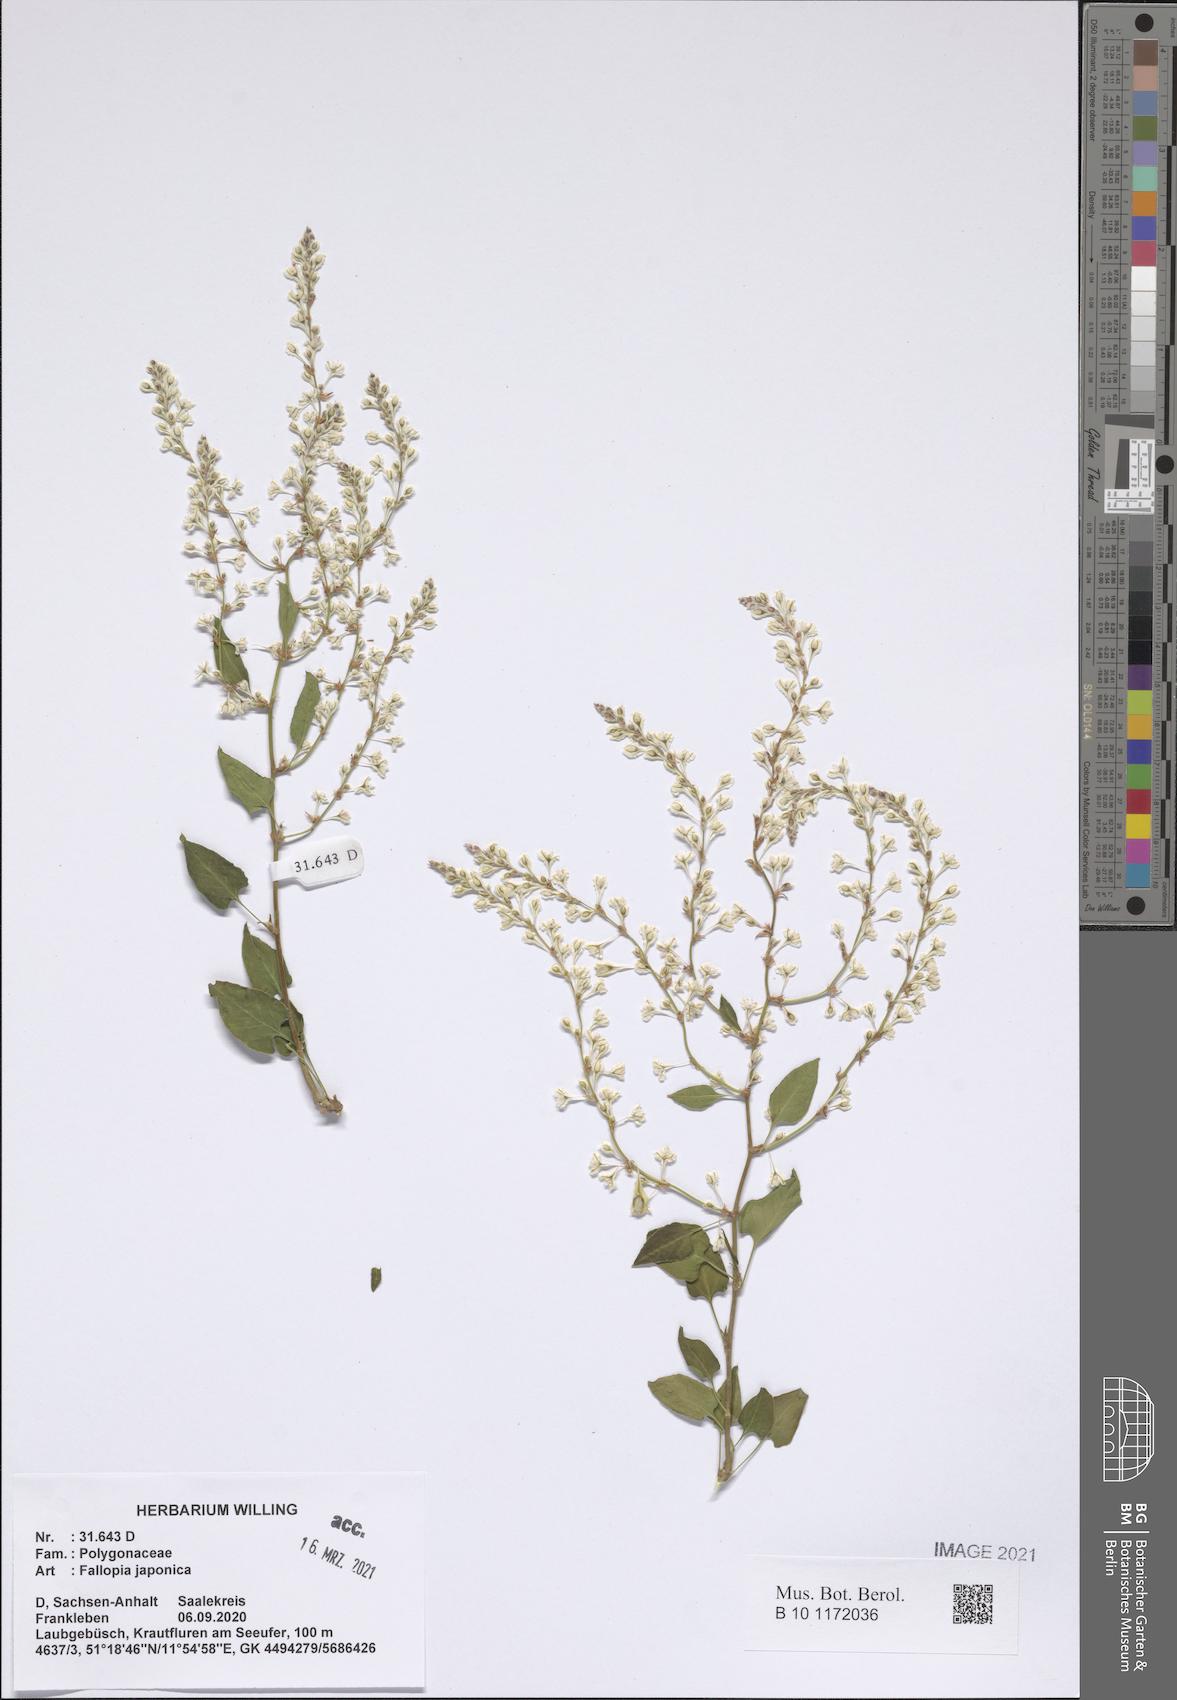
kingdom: Plantae
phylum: Tracheophyta
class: Magnoliopsida
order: Caryophyllales
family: Polygonaceae
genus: Fallopia
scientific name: Fallopia baldschuanica
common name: Russian-vine
